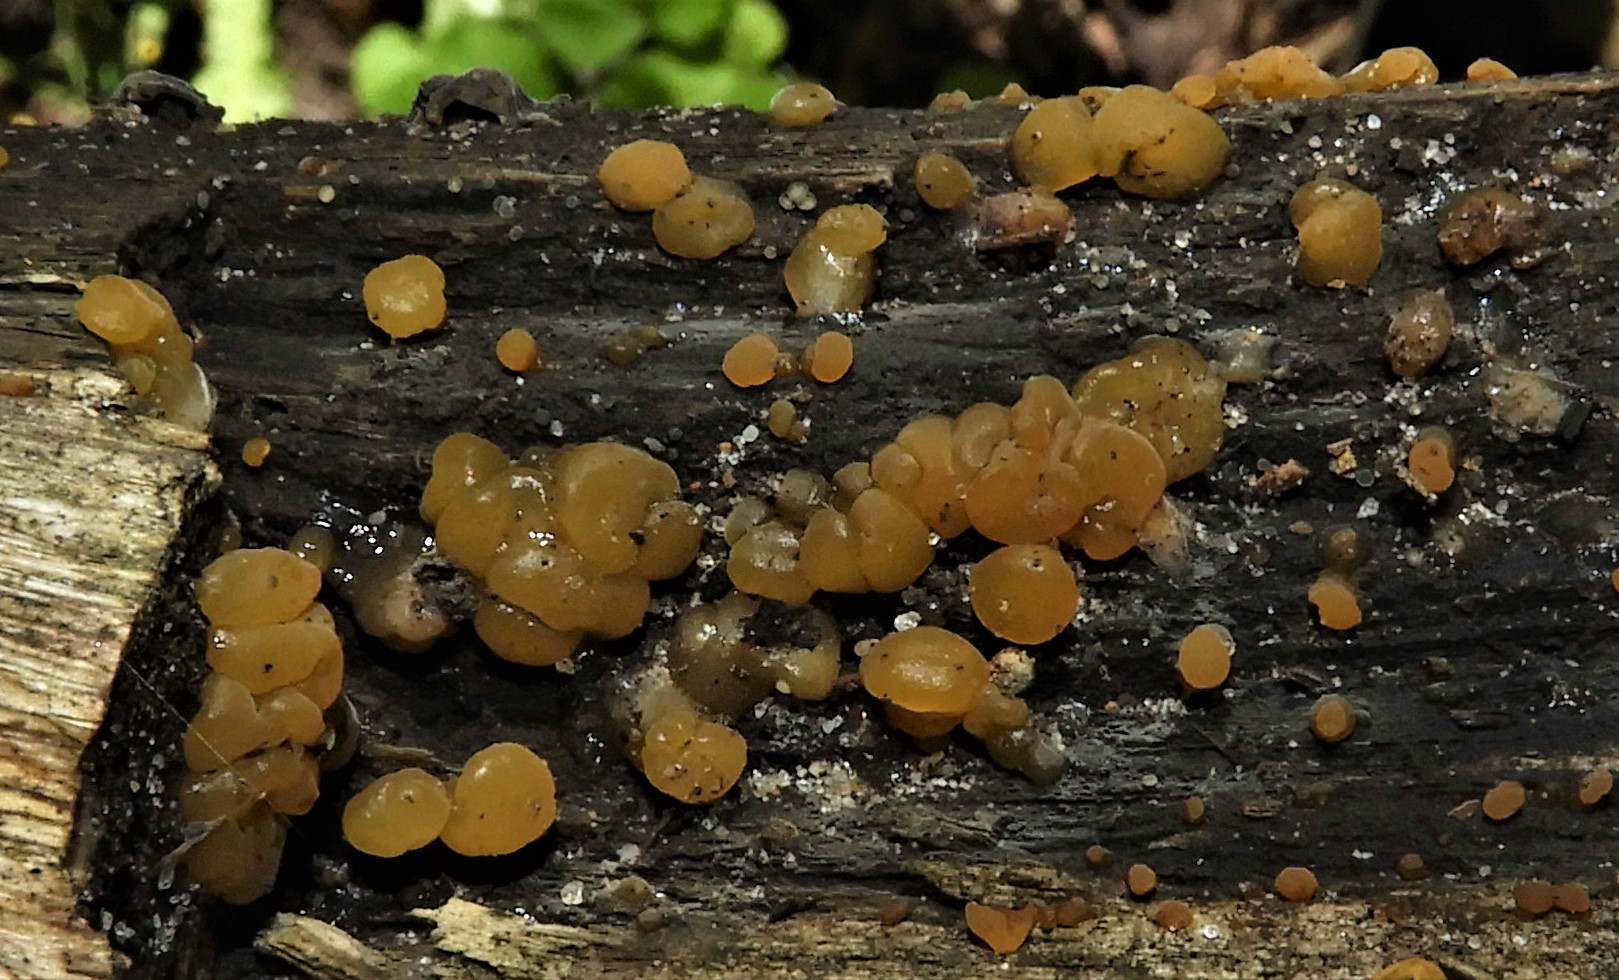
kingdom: Fungi
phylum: Basidiomycota
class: Dacrymycetes
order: Dacrymycetales
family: Dacrymycetaceae
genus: Dacrymyces
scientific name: Dacrymyces lacrymalis
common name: rynket tåresvamp
